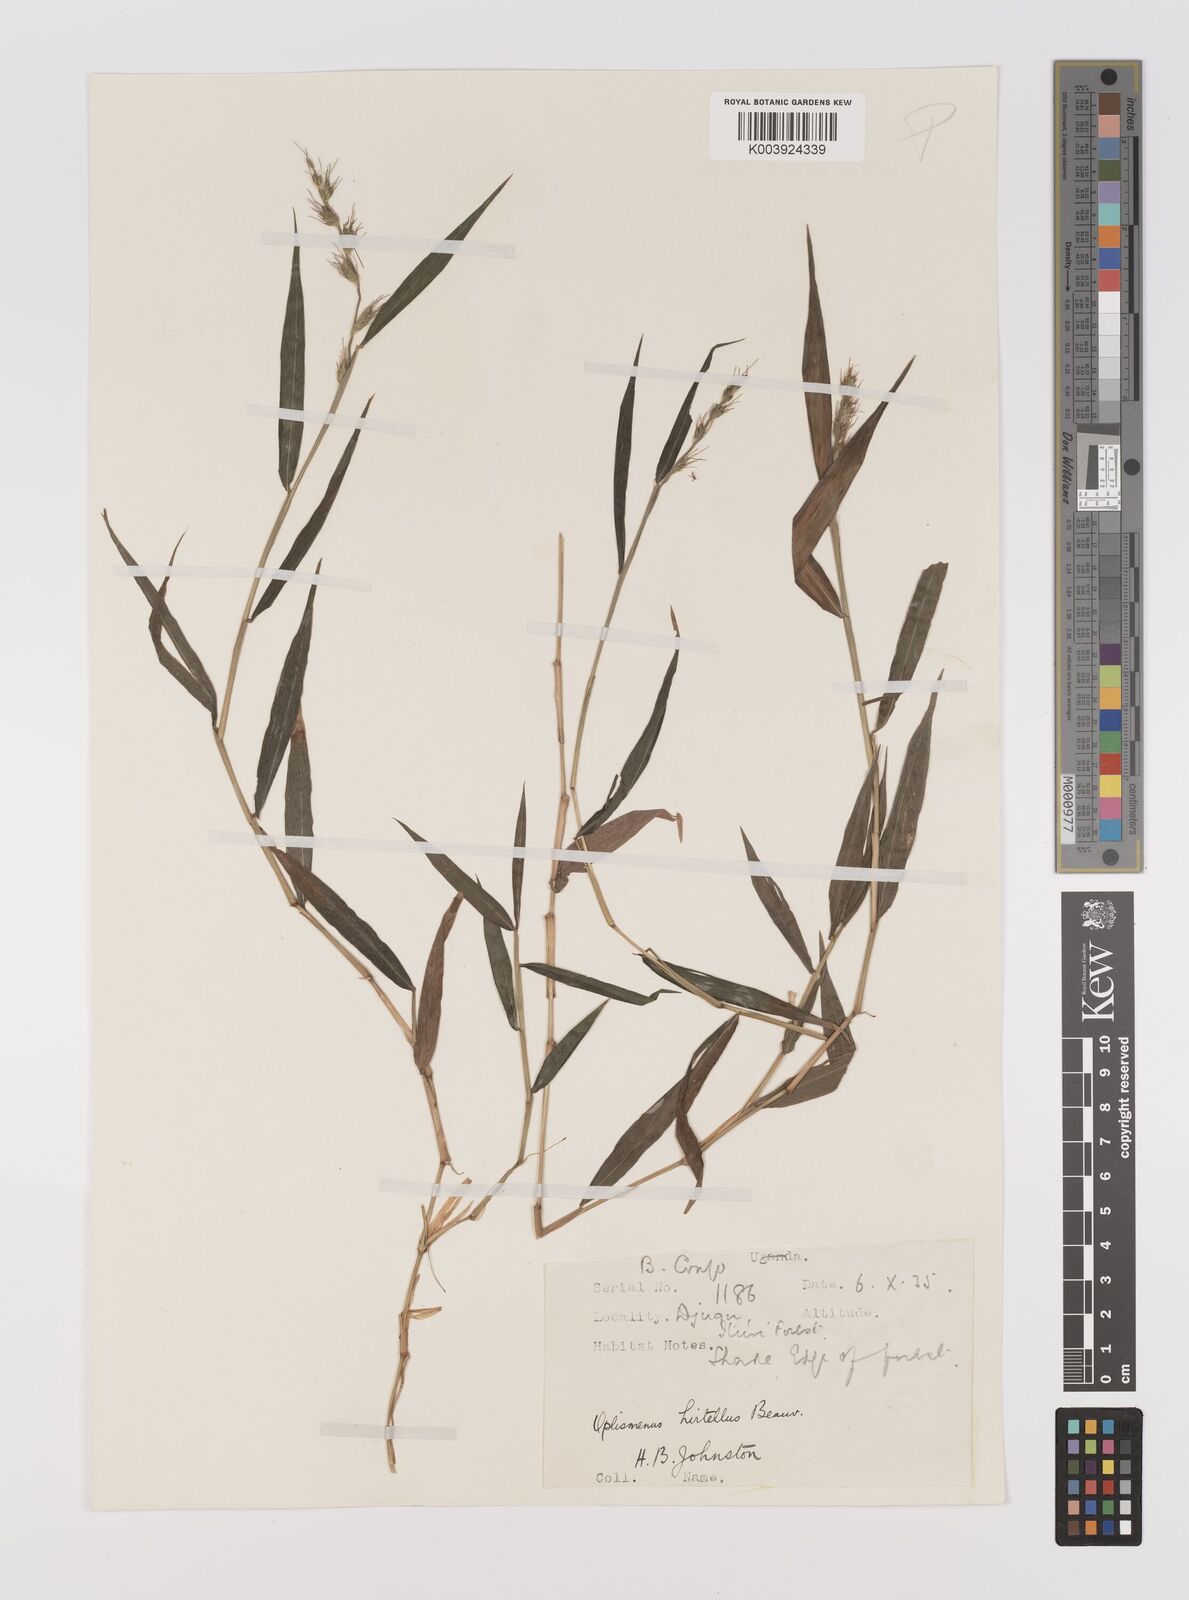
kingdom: Plantae
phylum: Tracheophyta
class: Liliopsida
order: Poales
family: Poaceae
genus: Oplismenus
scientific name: Oplismenus hirtellus
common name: Basketgrass
